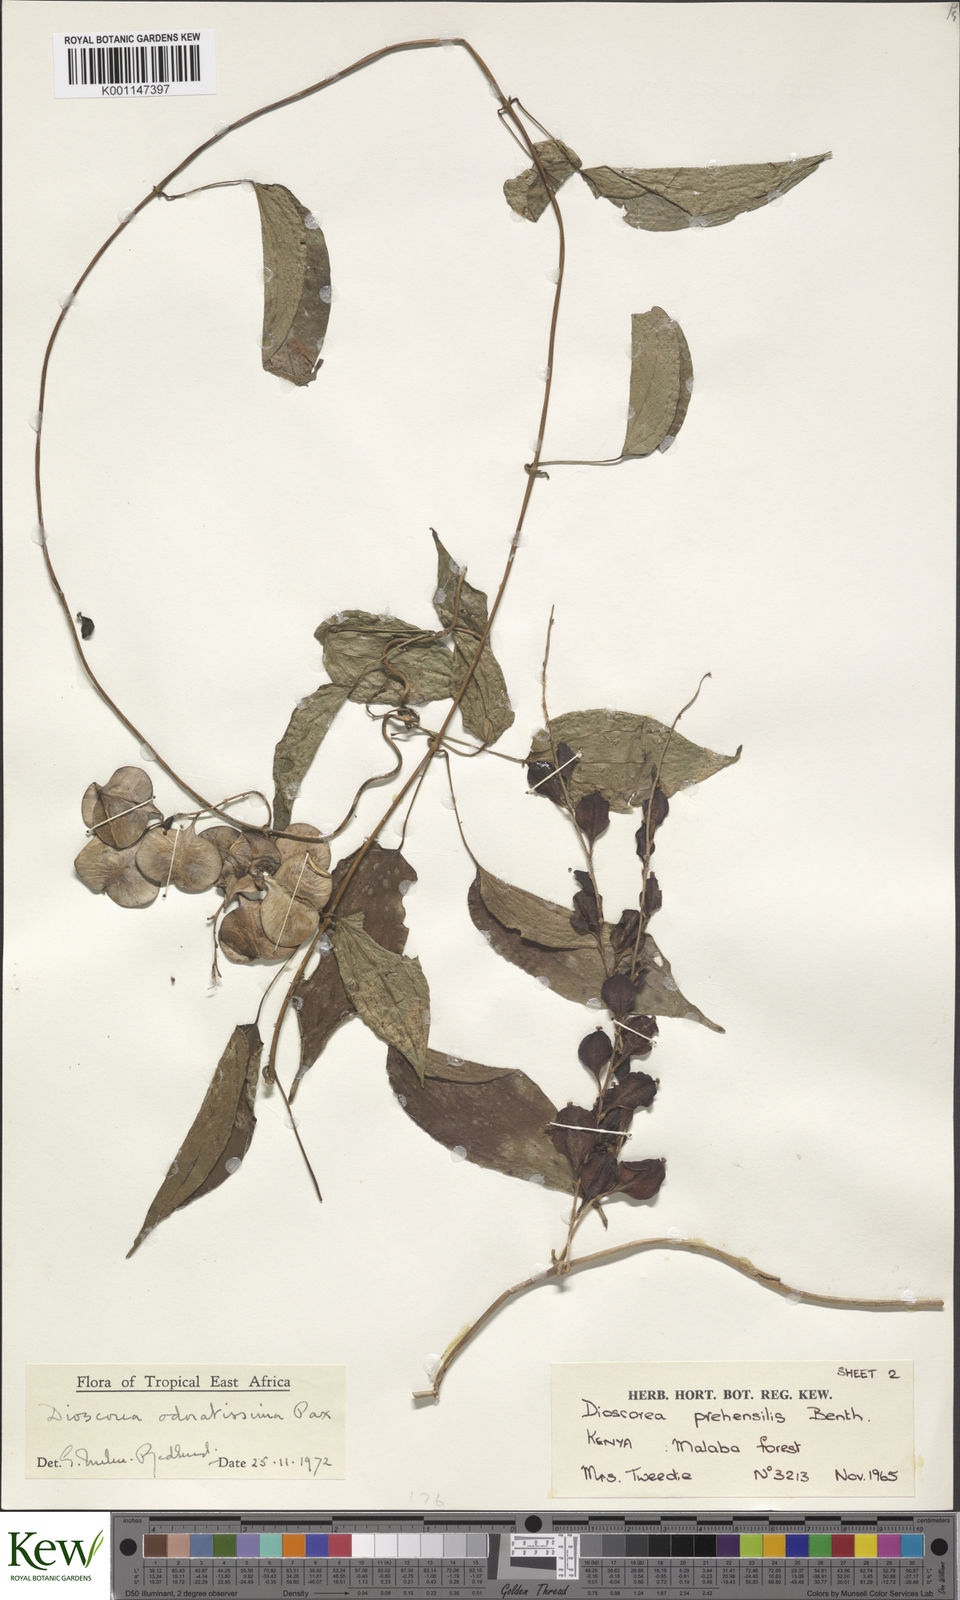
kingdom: Plantae
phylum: Tracheophyta
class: Liliopsida
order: Dioscoreales
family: Dioscoreaceae
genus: Dioscorea
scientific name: Dioscorea praehensilis
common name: Bush yam
